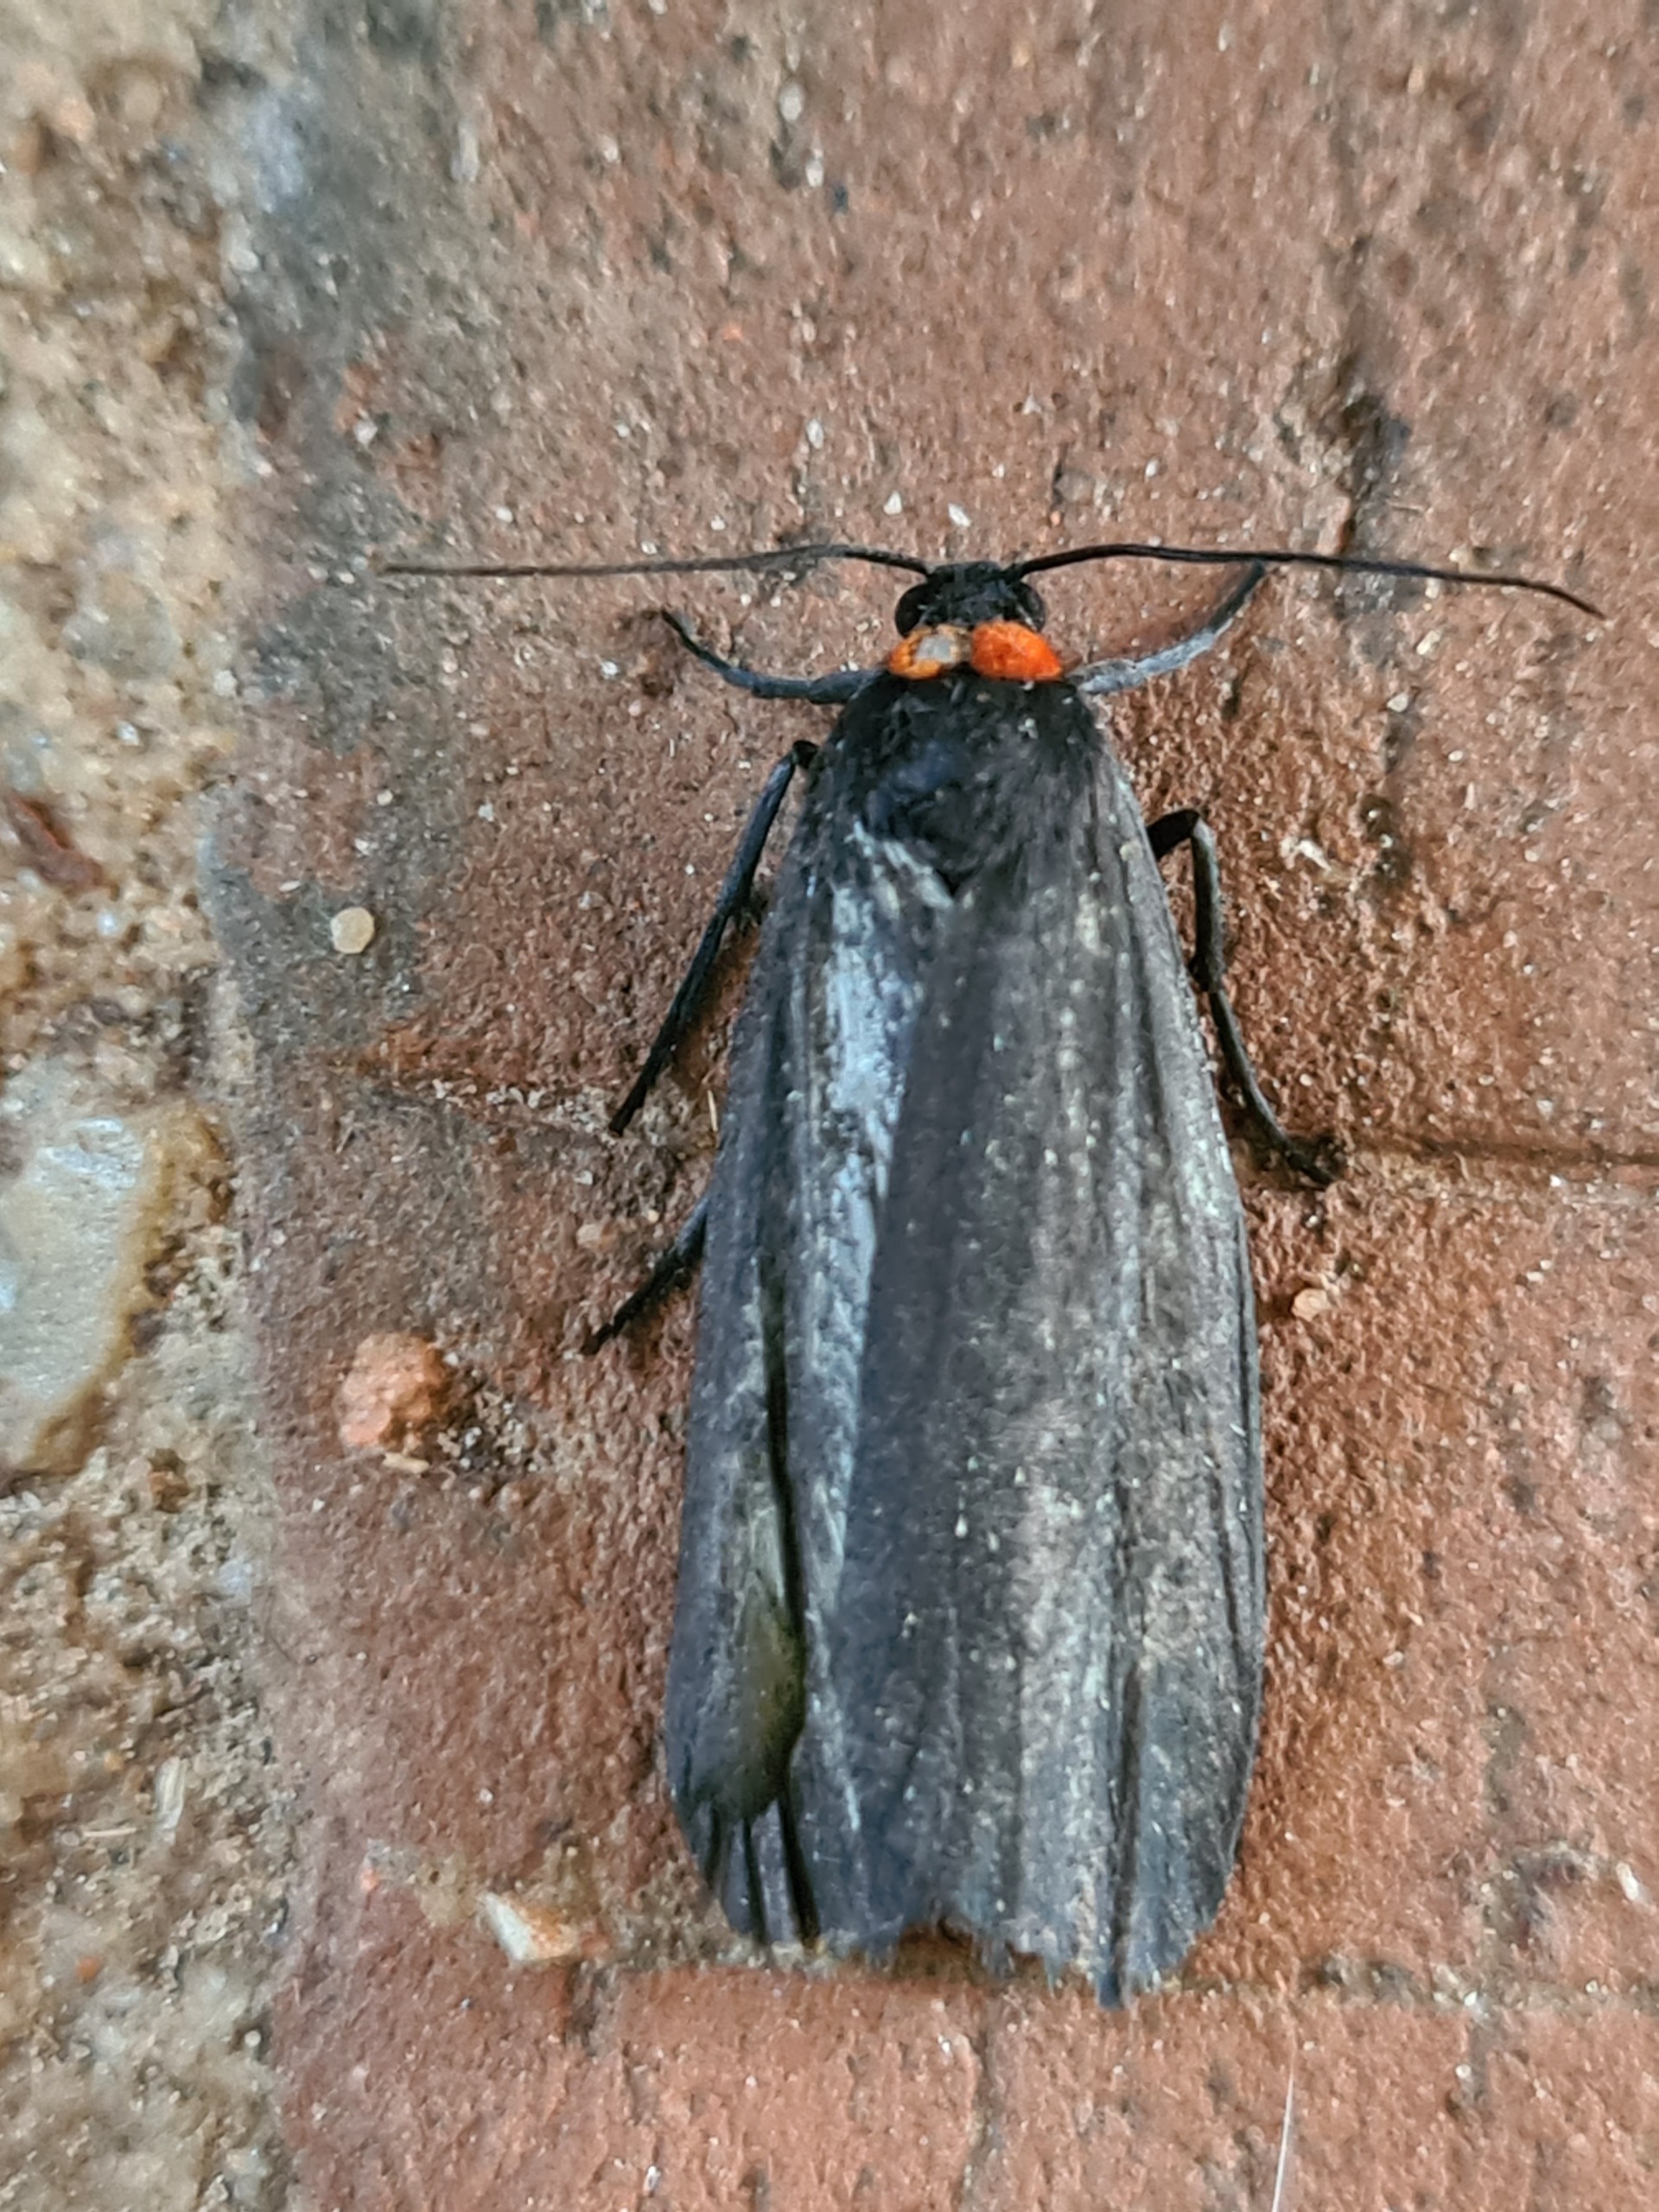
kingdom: Animalia
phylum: Arthropoda
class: Insecta
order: Lepidoptera
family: Erebidae
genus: Atolmis
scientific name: Atolmis rubricollis
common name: Blodnakke
